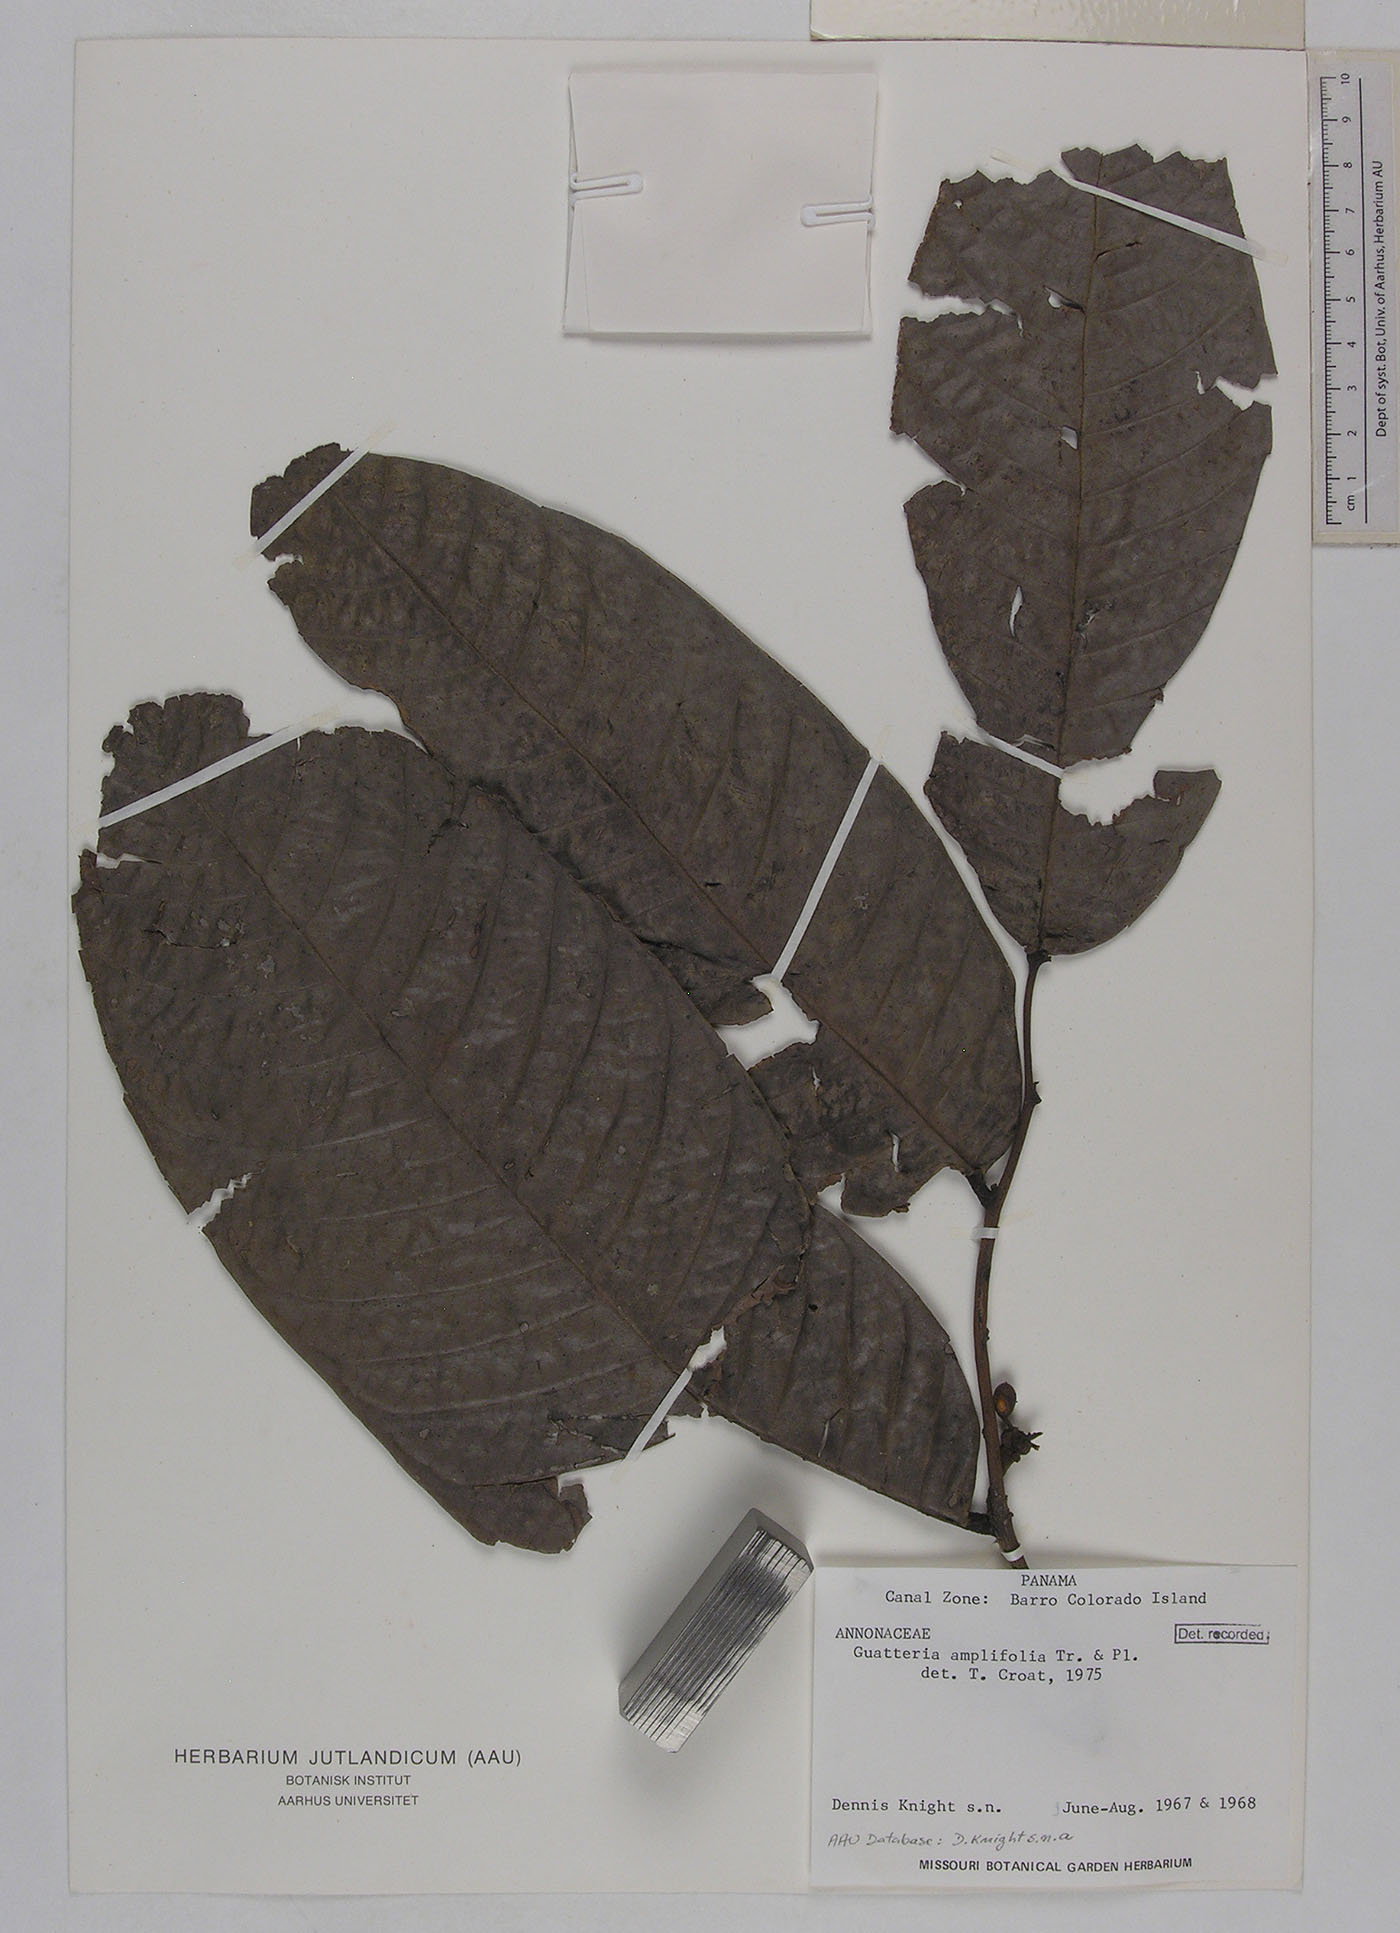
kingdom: Plantae
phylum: Tracheophyta
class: Magnoliopsida
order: Magnoliales
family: Annonaceae
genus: Guatteria
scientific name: Guatteria amplifolia
